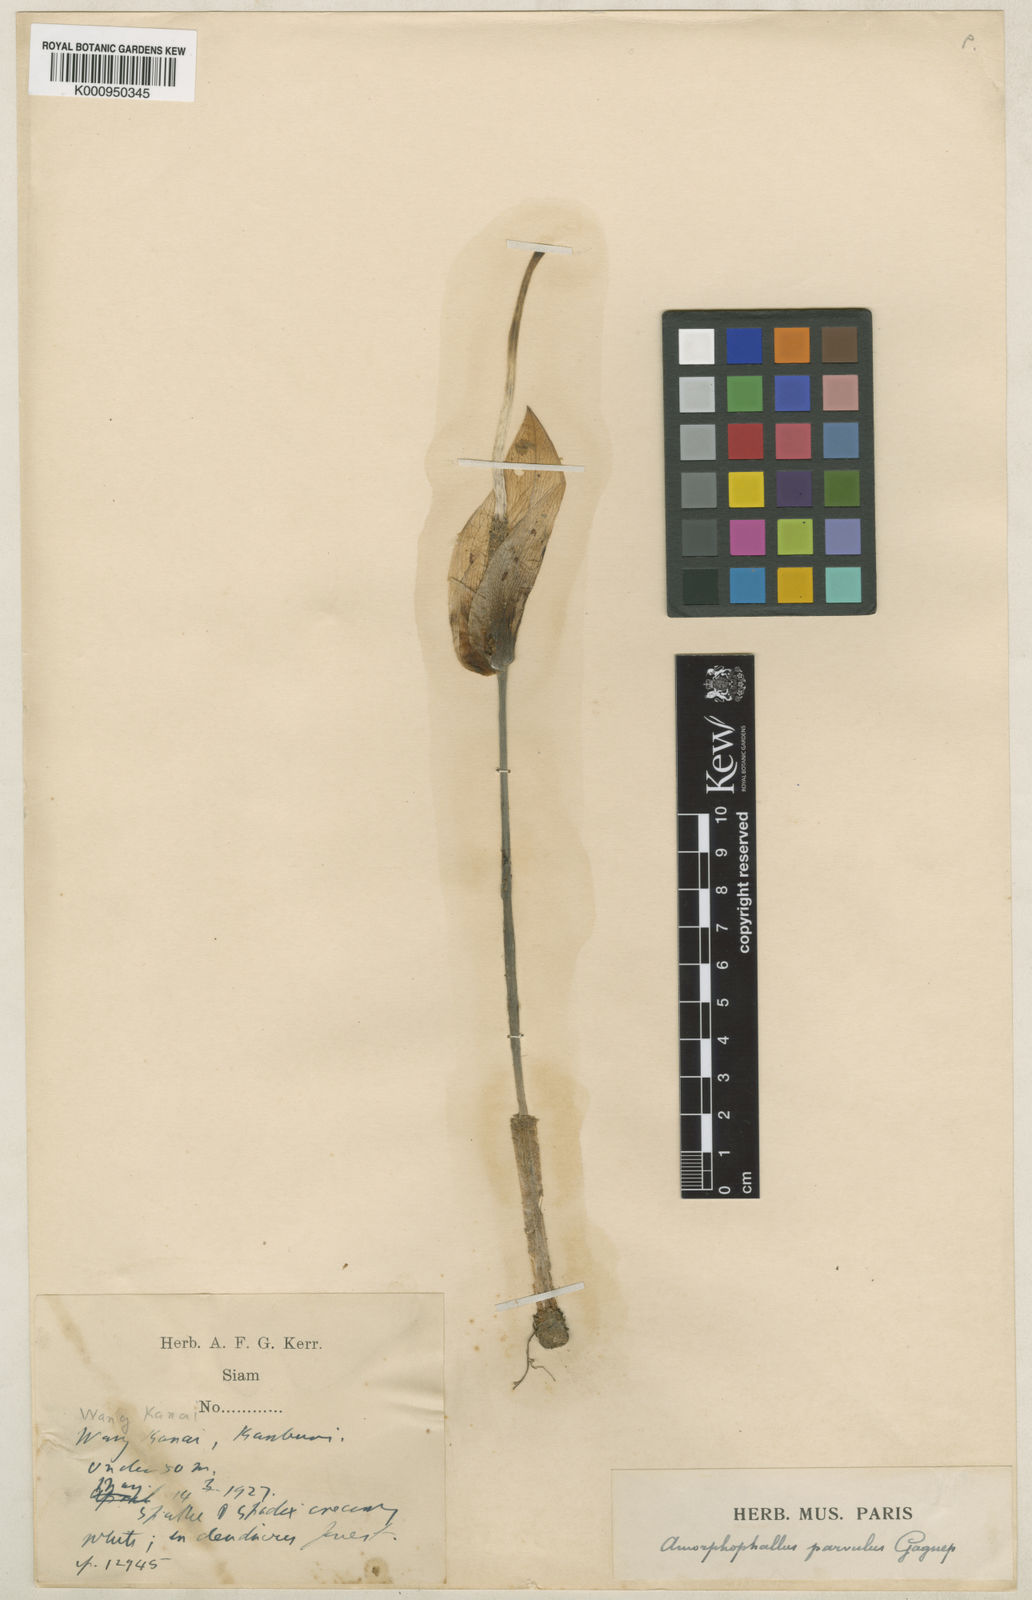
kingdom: Plantae
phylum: Tracheophyta
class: Liliopsida
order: Alismatales
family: Araceae
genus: Amorphophallus
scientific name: Amorphophallus harmandii
